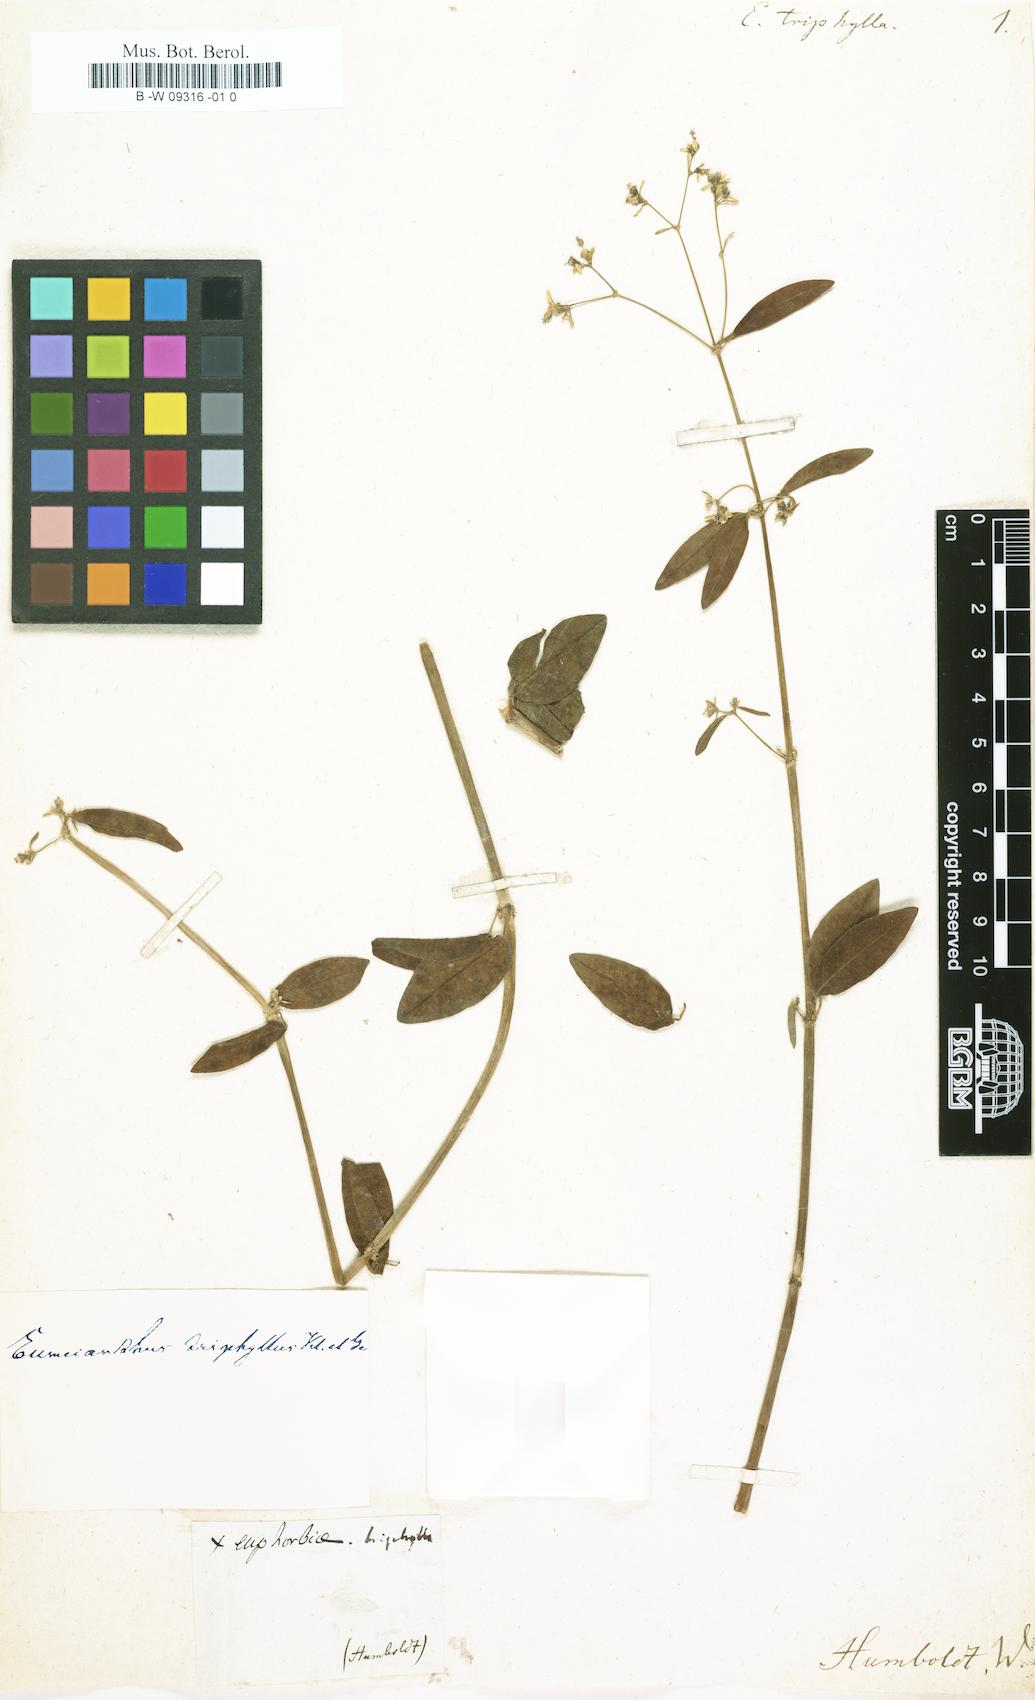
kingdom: Plantae
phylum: Tracheophyta
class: Magnoliopsida
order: Malpighiales
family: Euphorbiaceae
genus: Euphorbia
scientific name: Euphorbia triphylla
